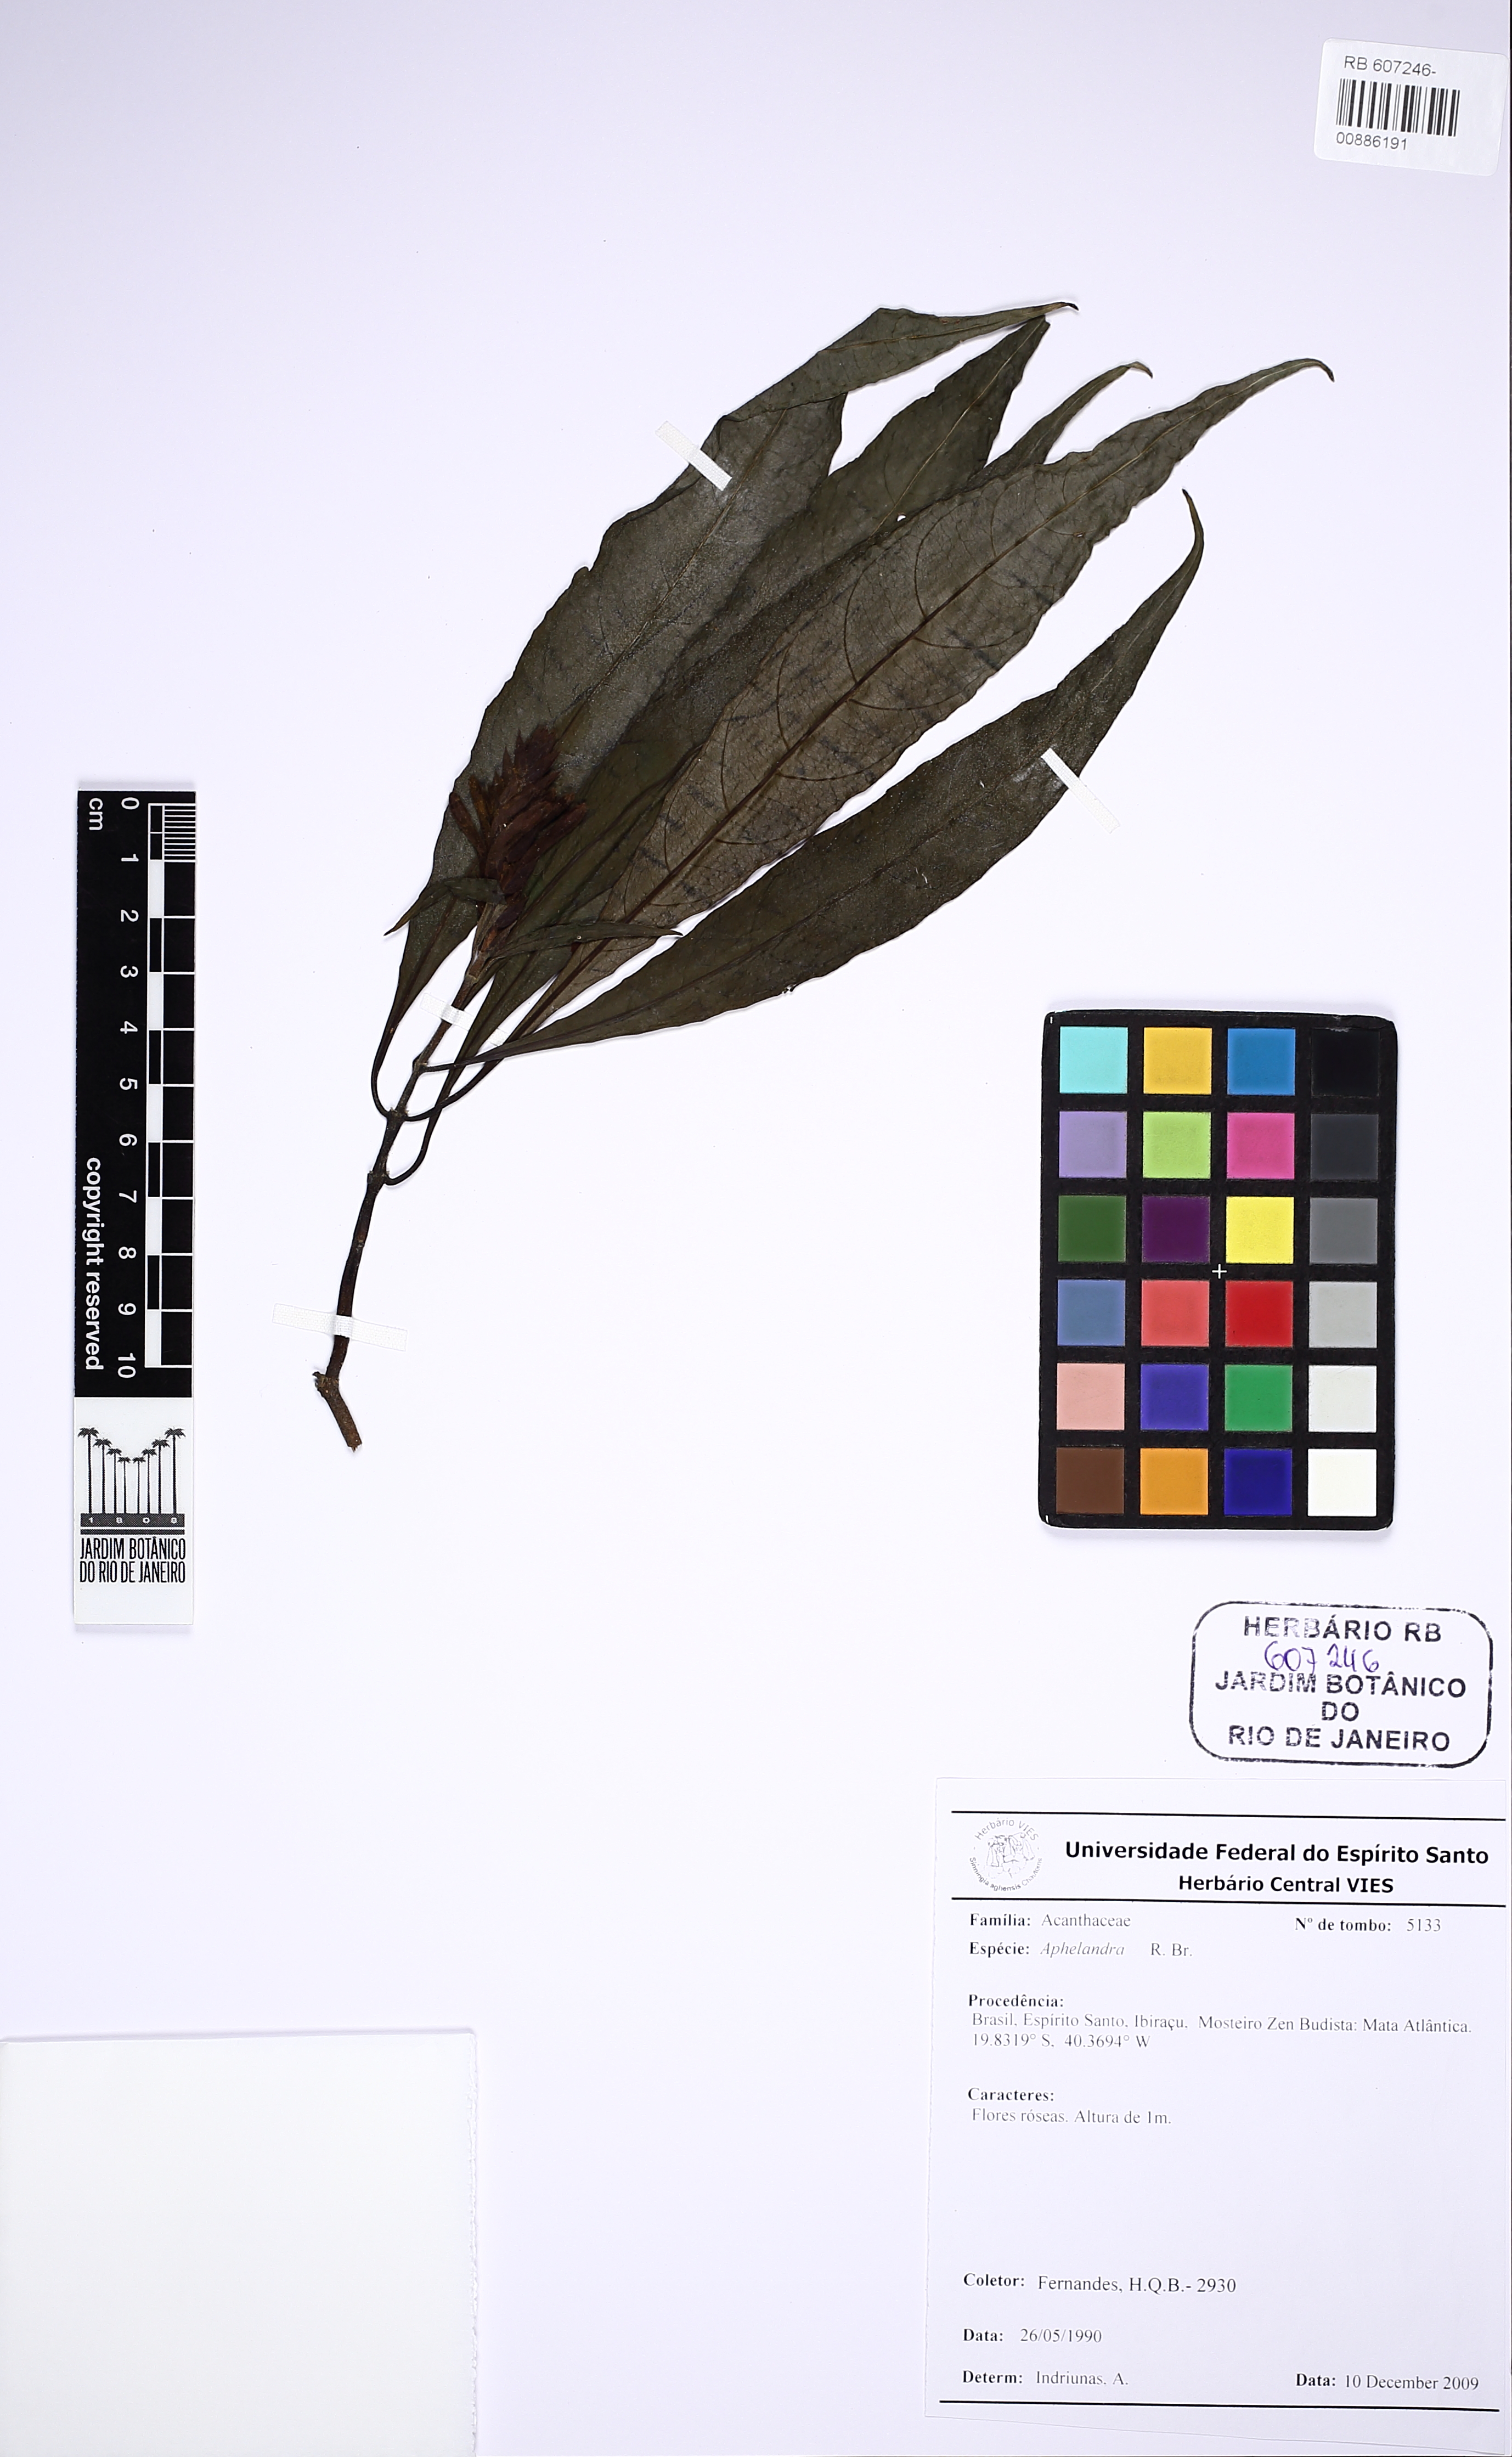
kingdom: Plantae
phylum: Tracheophyta
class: Magnoliopsida
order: Lamiales
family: Acanthaceae
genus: Aphelandra
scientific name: Aphelandra
